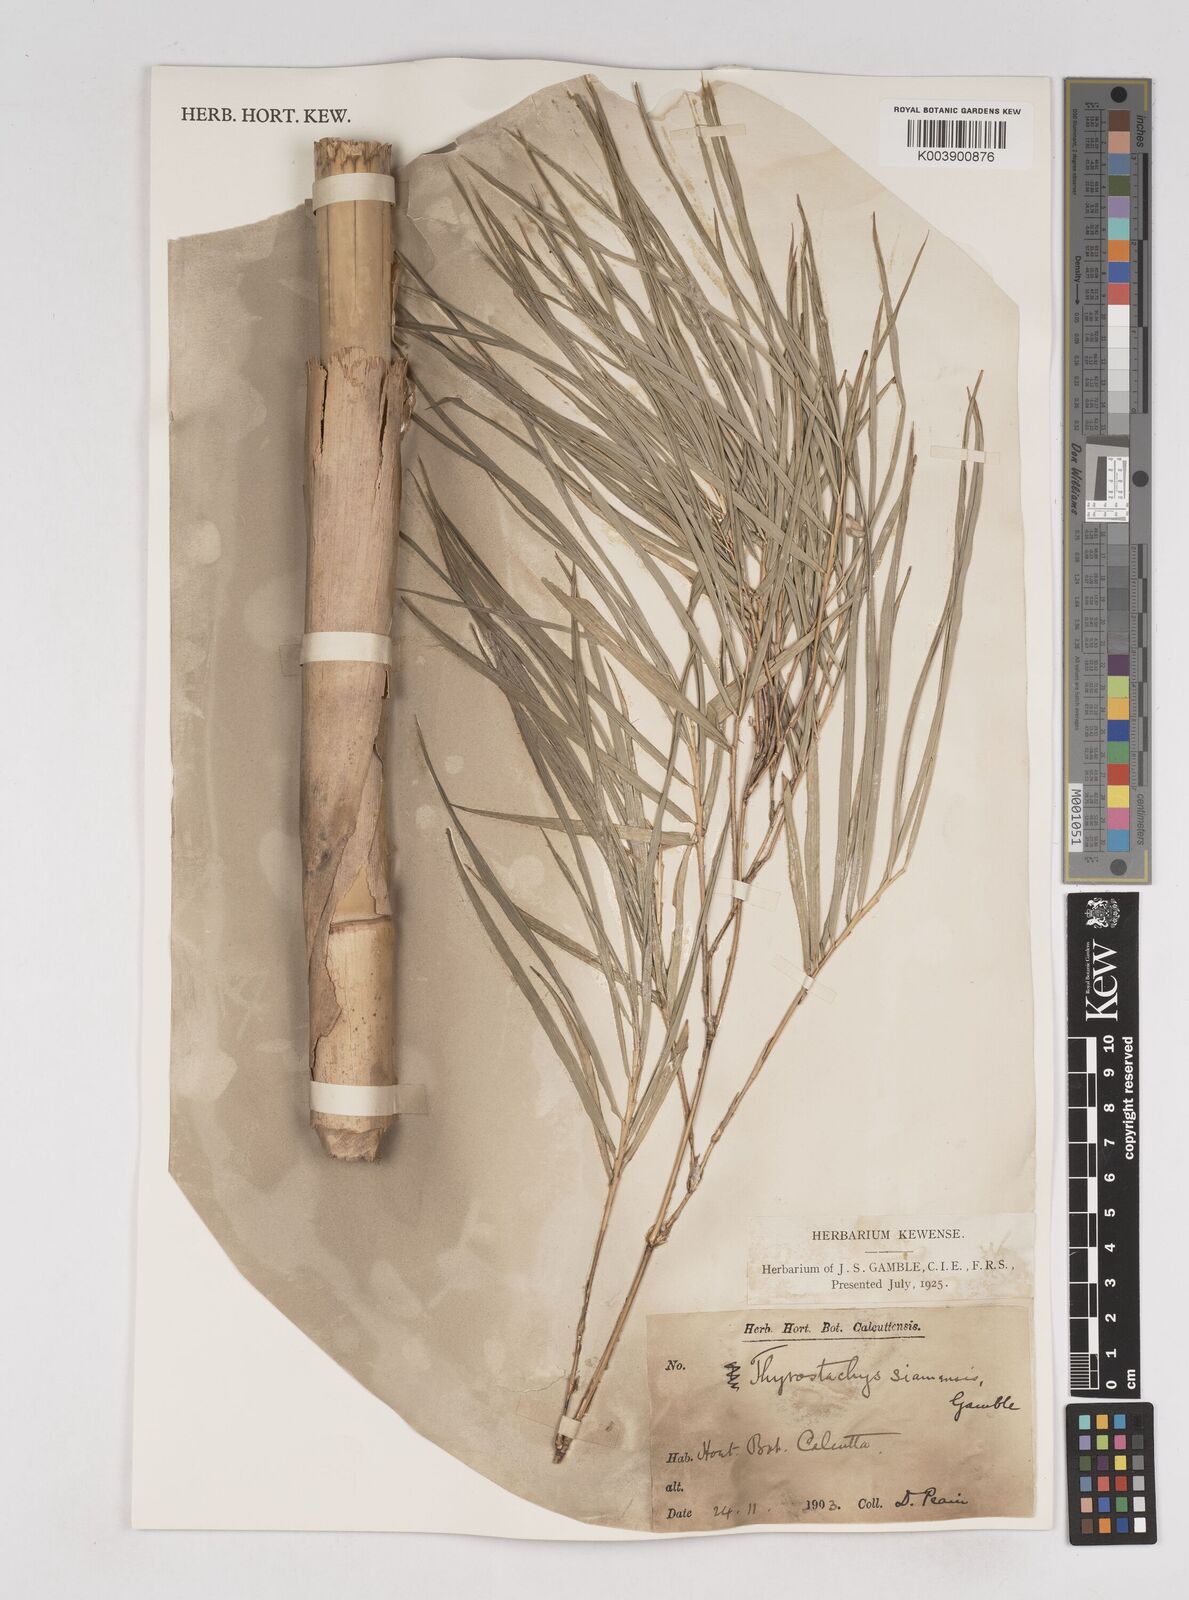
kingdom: Plantae
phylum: Tracheophyta
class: Liliopsida
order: Poales
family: Poaceae
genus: Thyrsostachys
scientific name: Thyrsostachys siamensis
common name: Thailand bamboo
